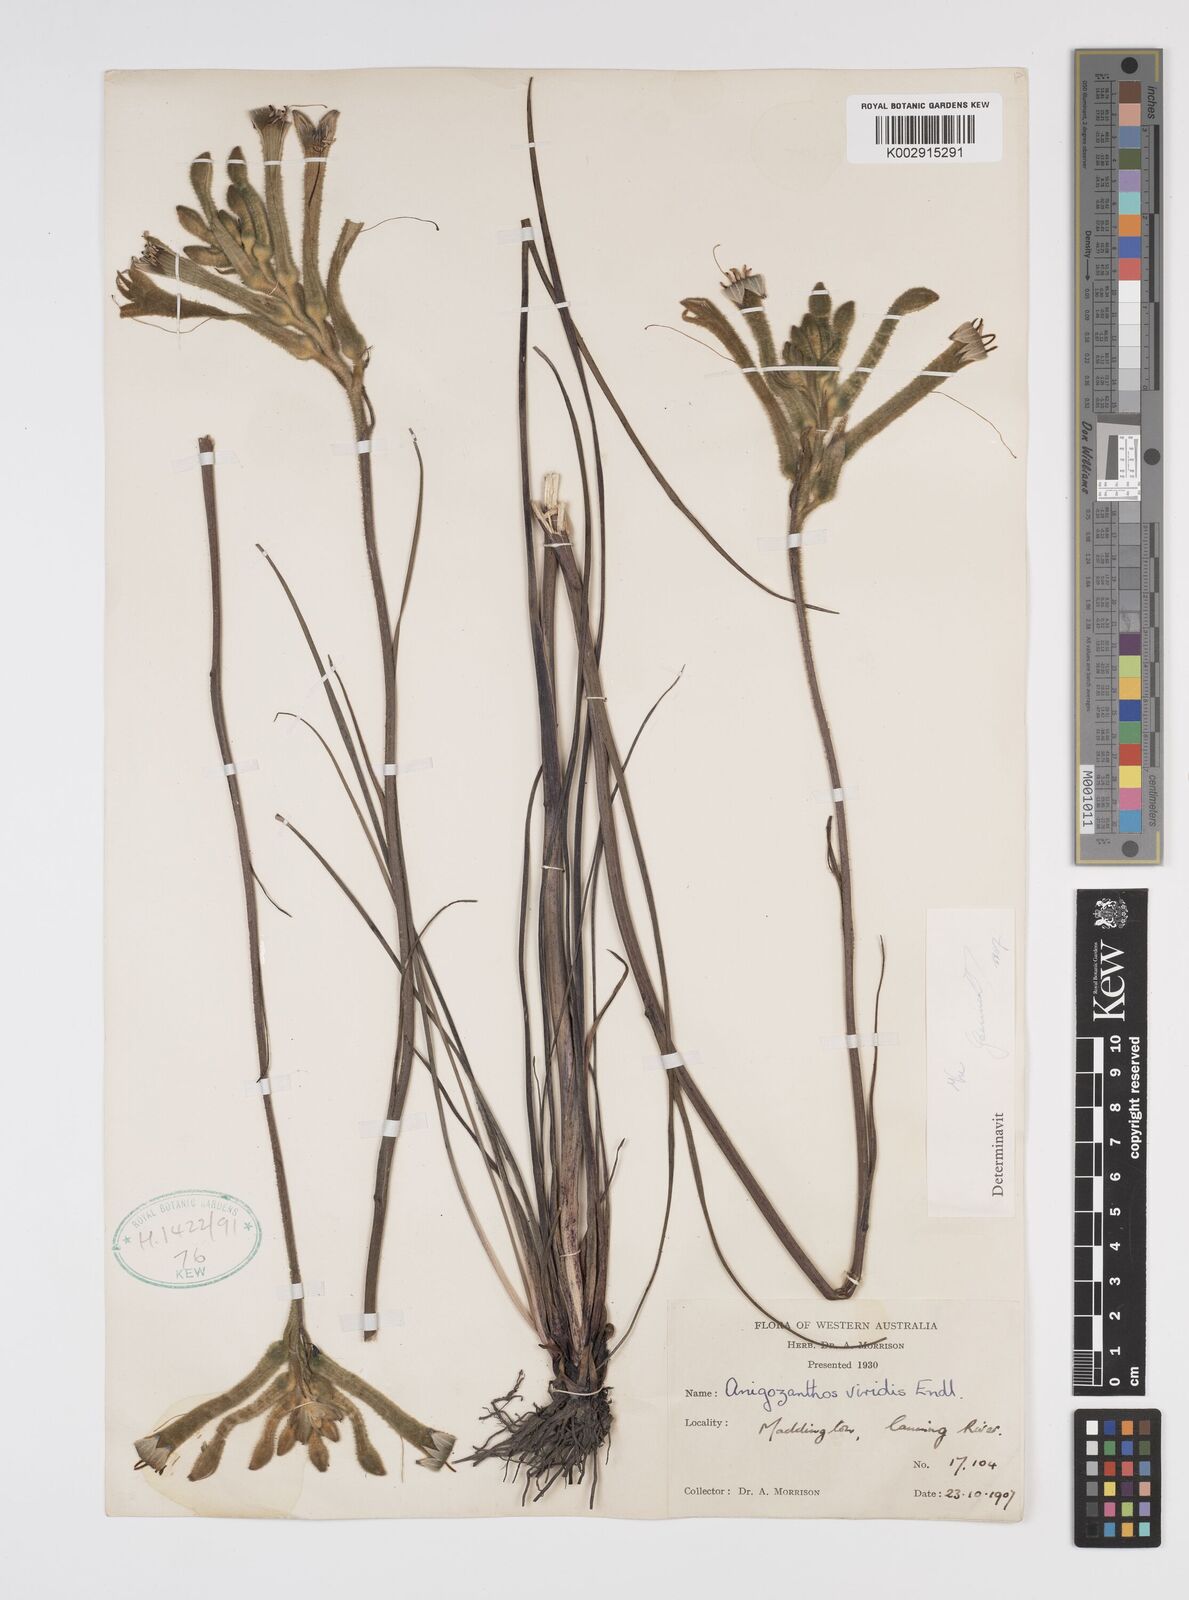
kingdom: Plantae
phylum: Tracheophyta
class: Liliopsida
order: Commelinales
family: Haemodoraceae
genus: Anigozanthos
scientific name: Anigozanthos viridis
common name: Green kangaroo-paw
